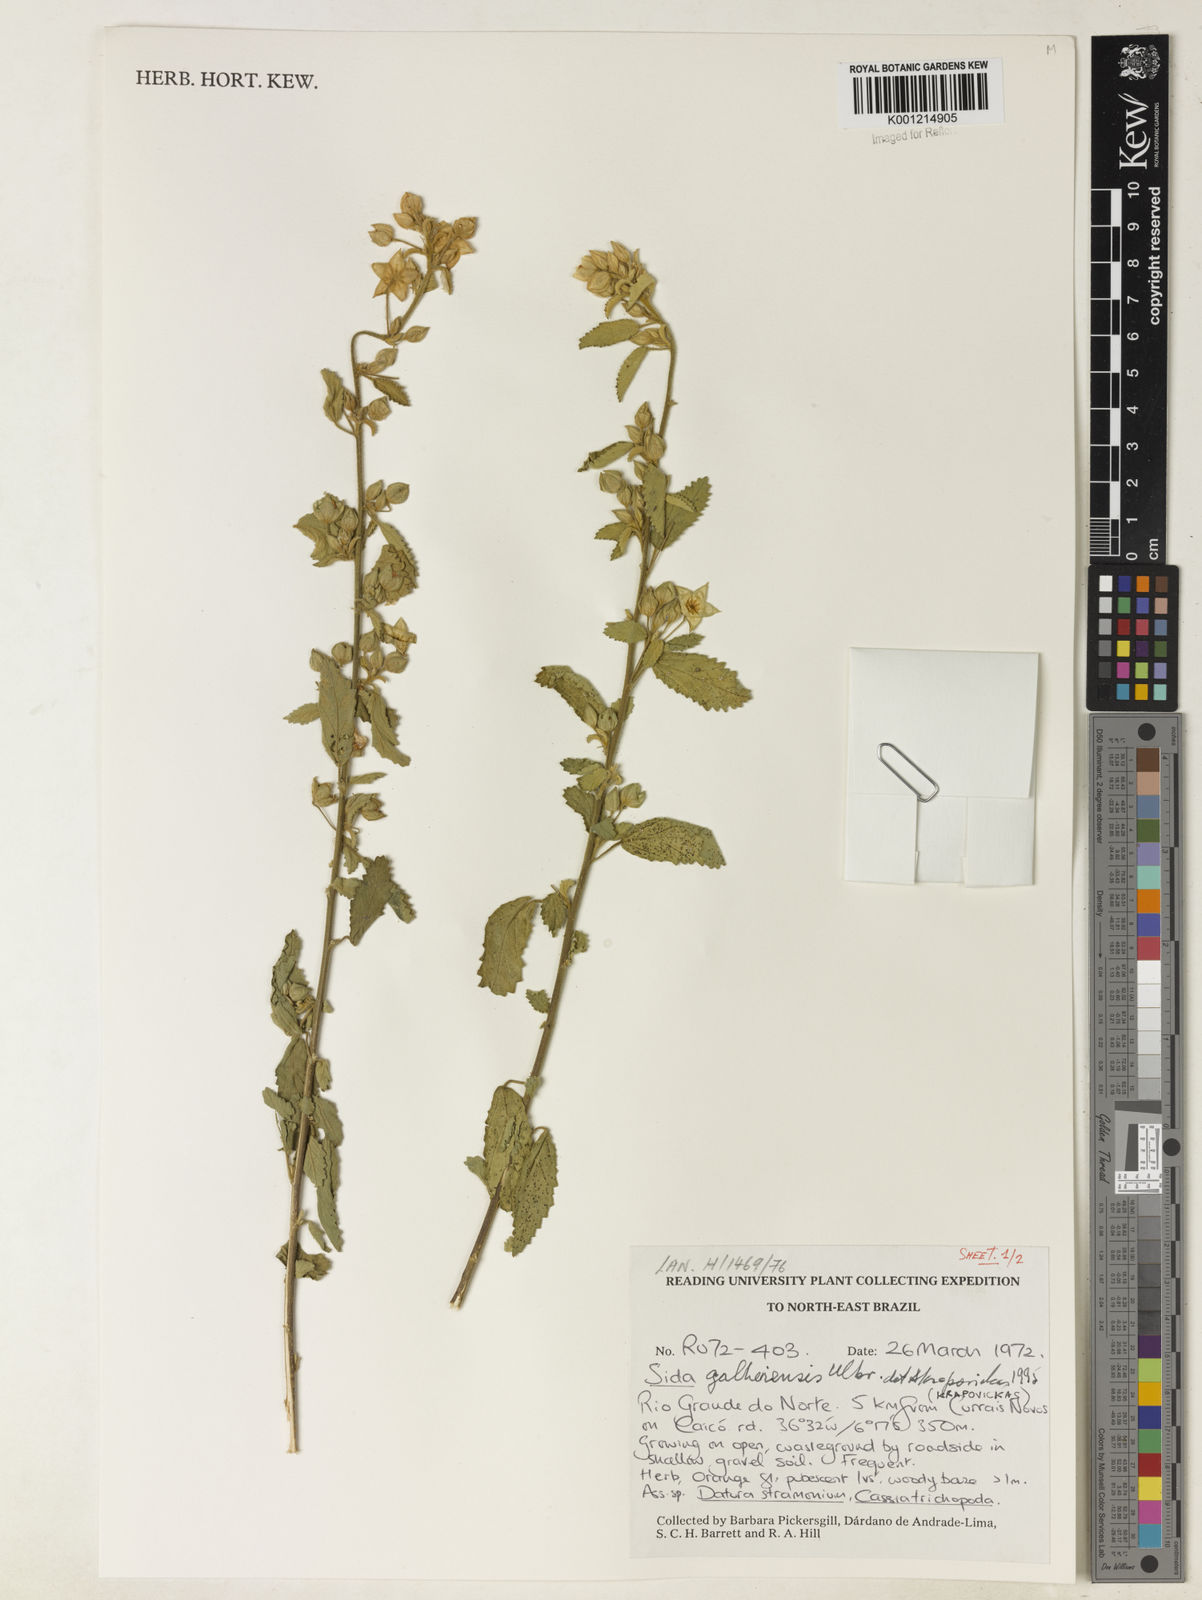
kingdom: Plantae
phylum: Tracheophyta
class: Magnoliopsida
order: Malvales
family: Malvaceae
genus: Sida
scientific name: Sida galheirensis
